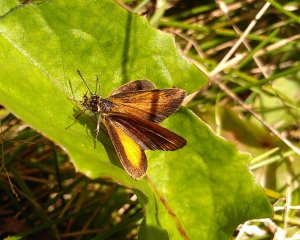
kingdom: Animalia
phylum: Arthropoda
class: Insecta
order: Lepidoptera
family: Hesperiidae
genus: Ancyloxypha
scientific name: Ancyloxypha numitor
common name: Least Skipper
